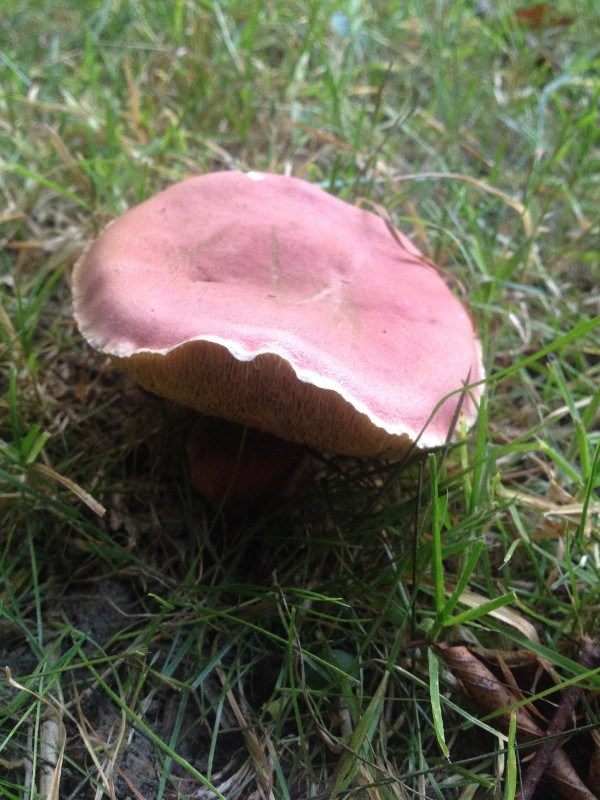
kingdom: Fungi
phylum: Basidiomycota
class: Agaricomycetes
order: Boletales
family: Boletaceae
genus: Hortiboletus
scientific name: Hortiboletus rubellus
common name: blodrød rørhat
